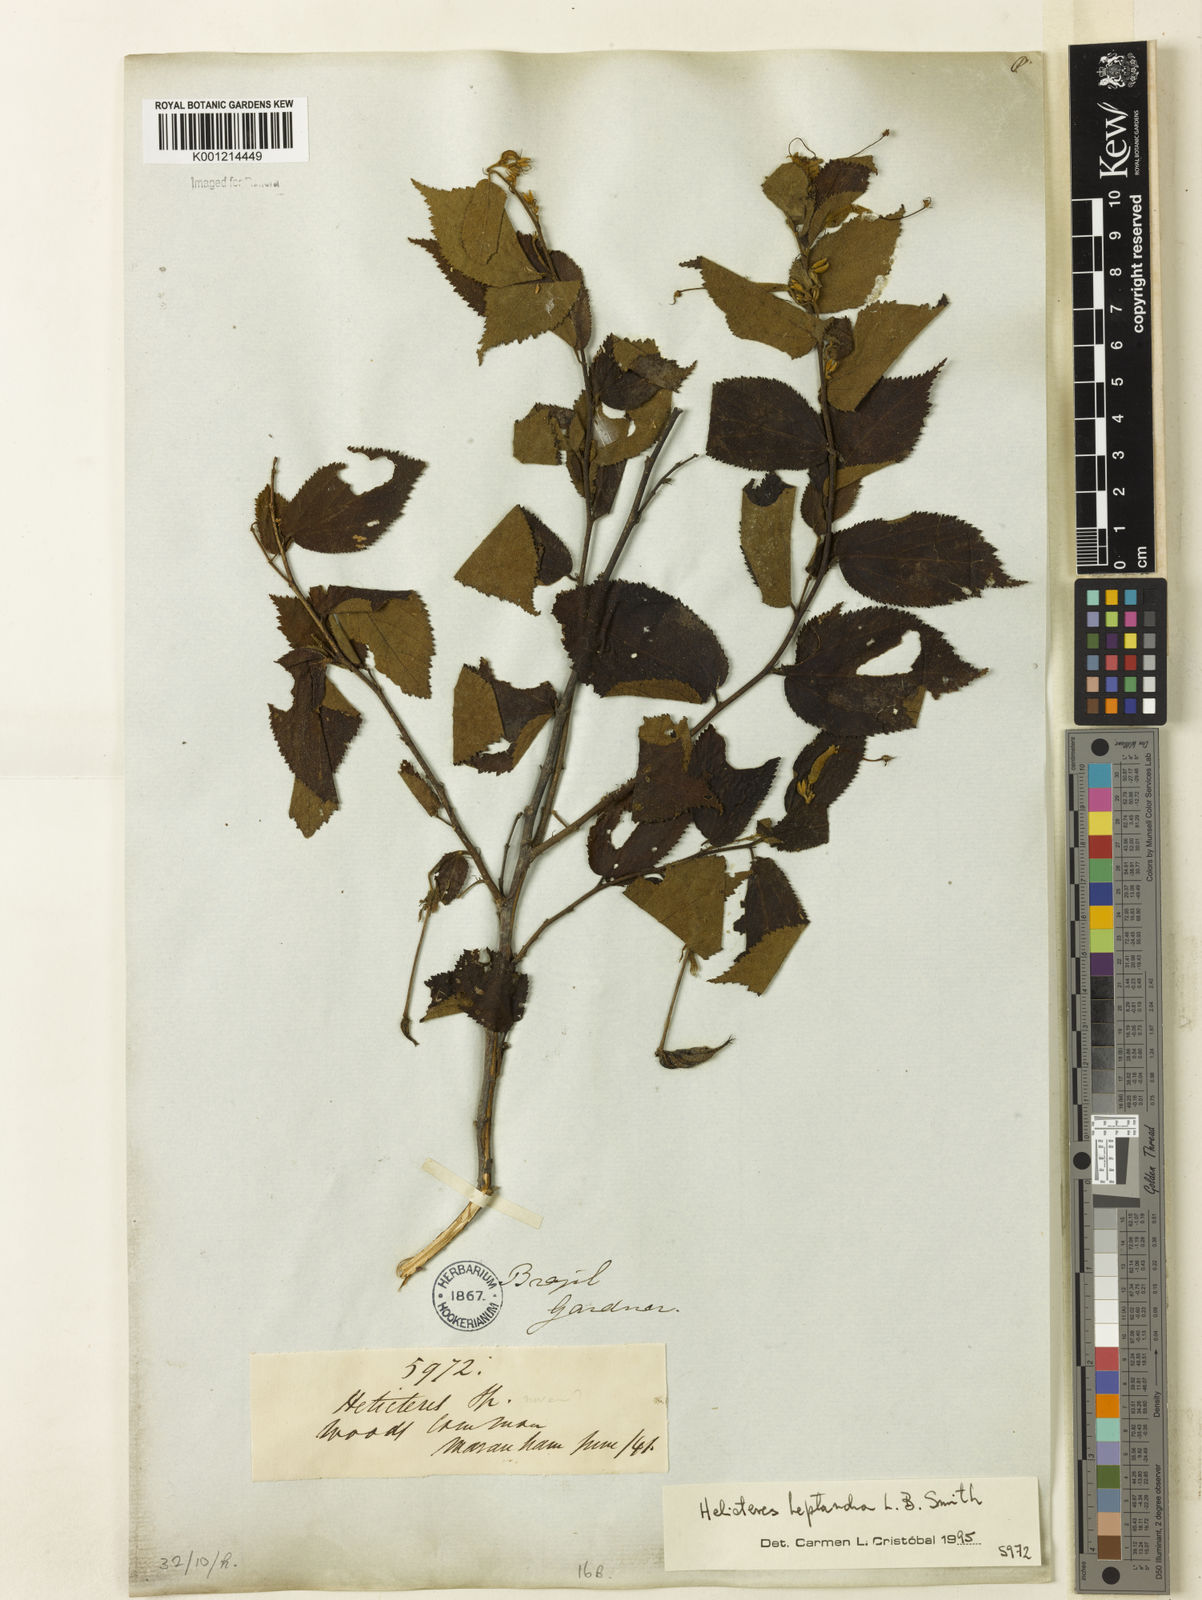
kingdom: Plantae
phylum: Tracheophyta
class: Magnoliopsida
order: Malvales
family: Malvaceae
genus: Helicteres
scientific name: Helicteres heptandra
